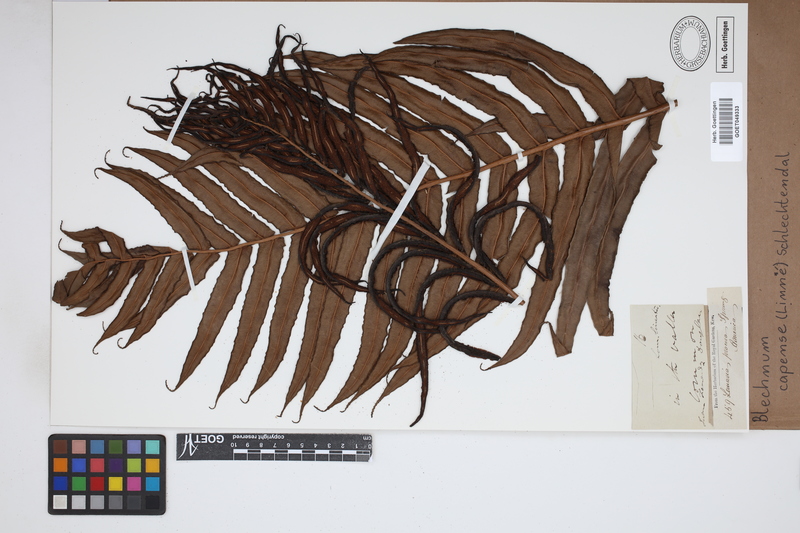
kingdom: Plantae
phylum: Tracheophyta
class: Polypodiopsida
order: Polypodiales
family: Blechnaceae
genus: Parablechnum
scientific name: Parablechnum capense
